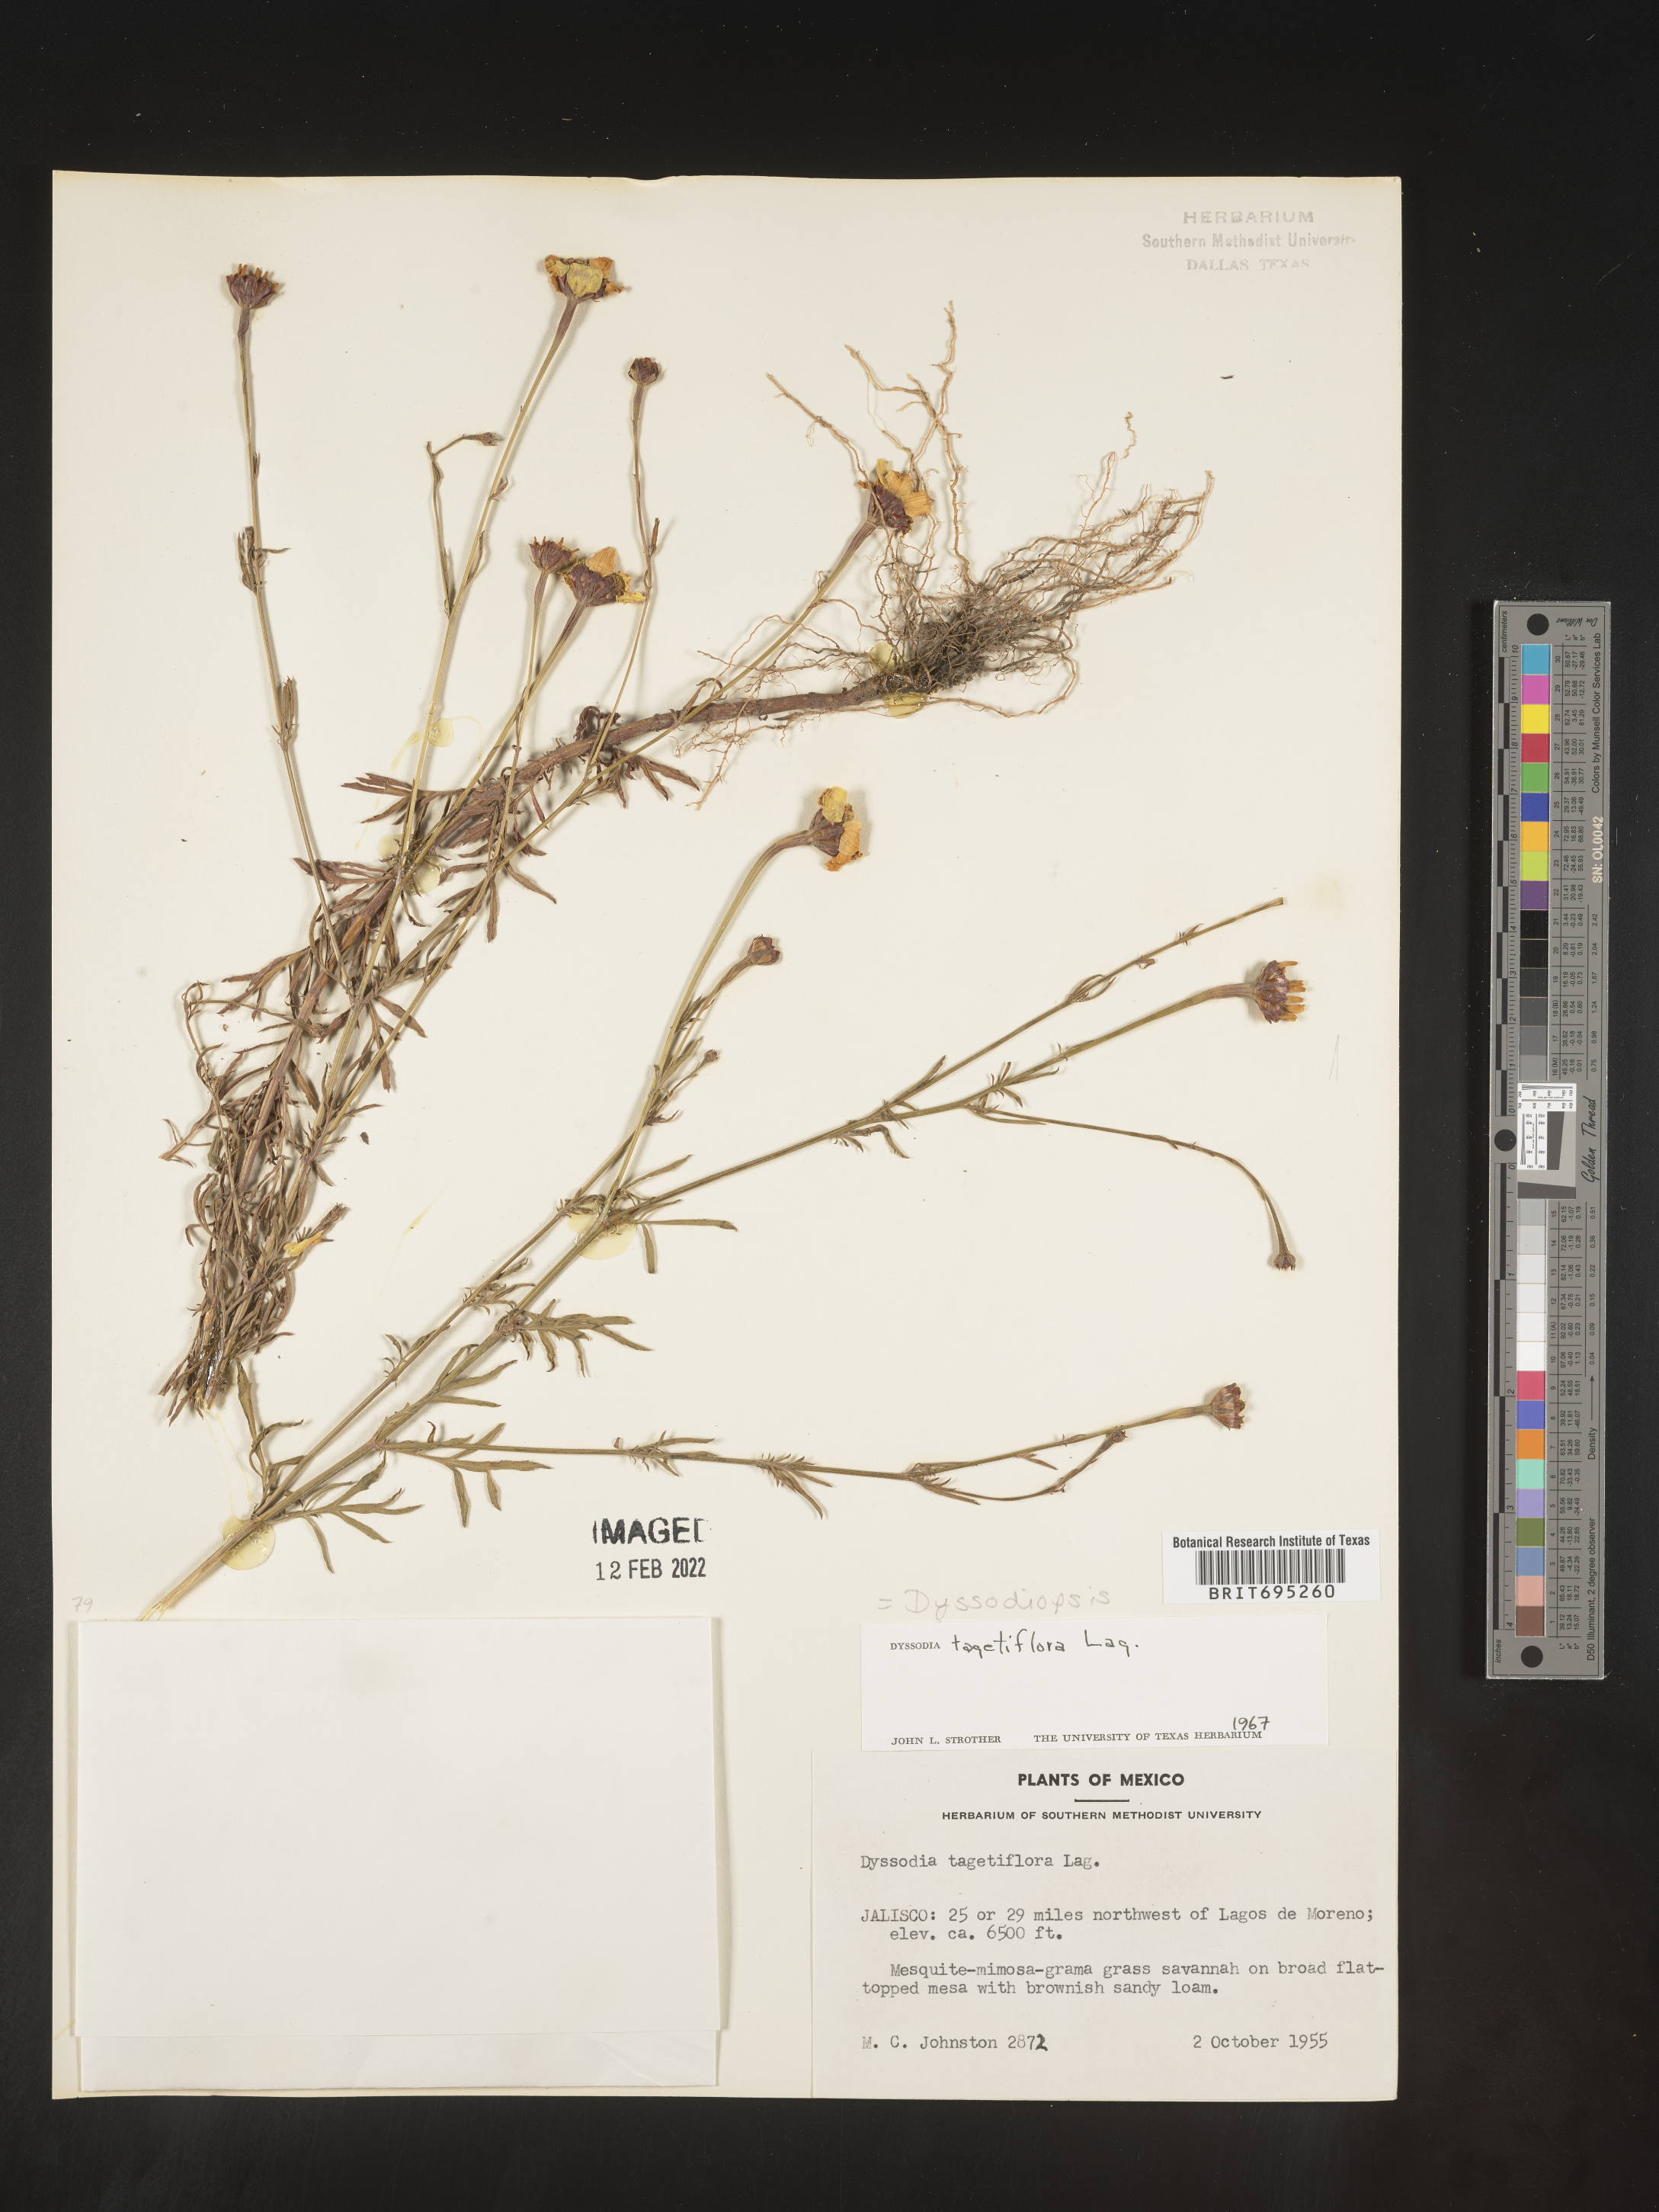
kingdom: Plantae
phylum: Tracheophyta
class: Magnoliopsida
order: Asterales
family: Asteraceae
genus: Dyssodia
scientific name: Dyssodia
